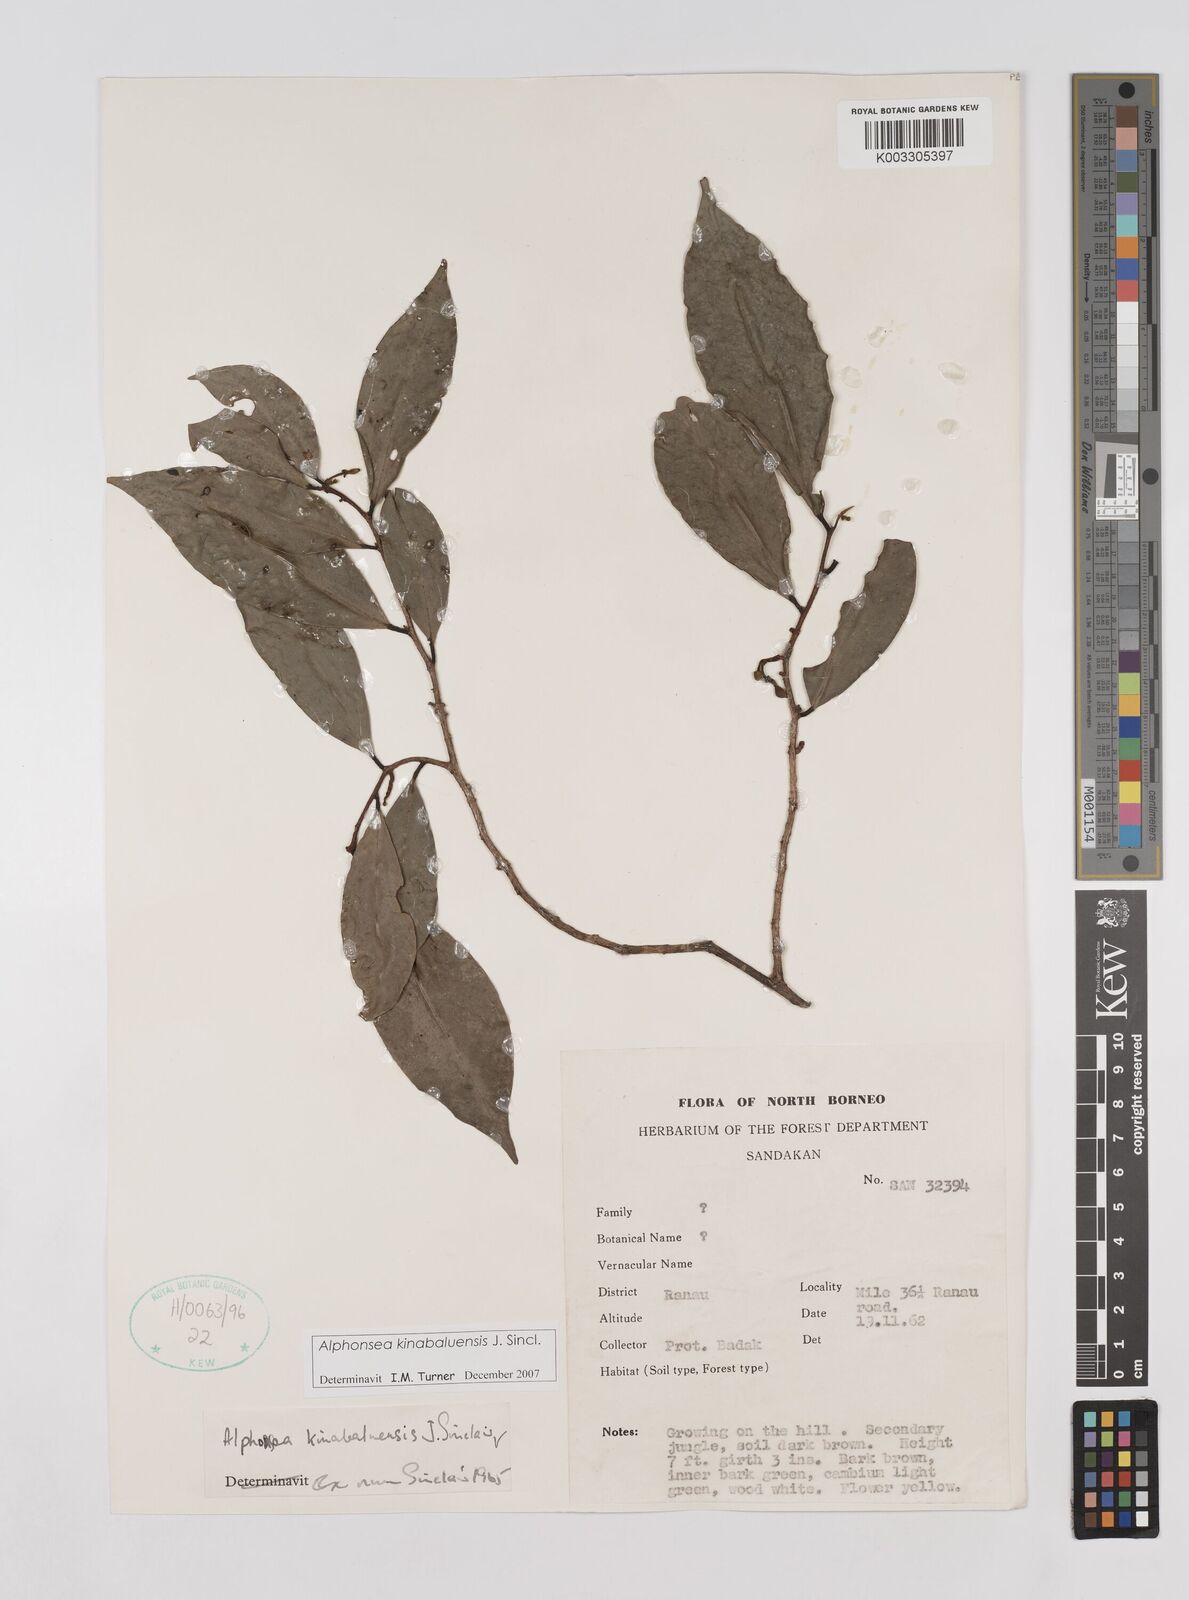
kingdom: Plantae
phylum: Tracheophyta
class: Magnoliopsida
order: Magnoliales
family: Annonaceae
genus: Alphonsea
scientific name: Alphonsea kinabaluensis
